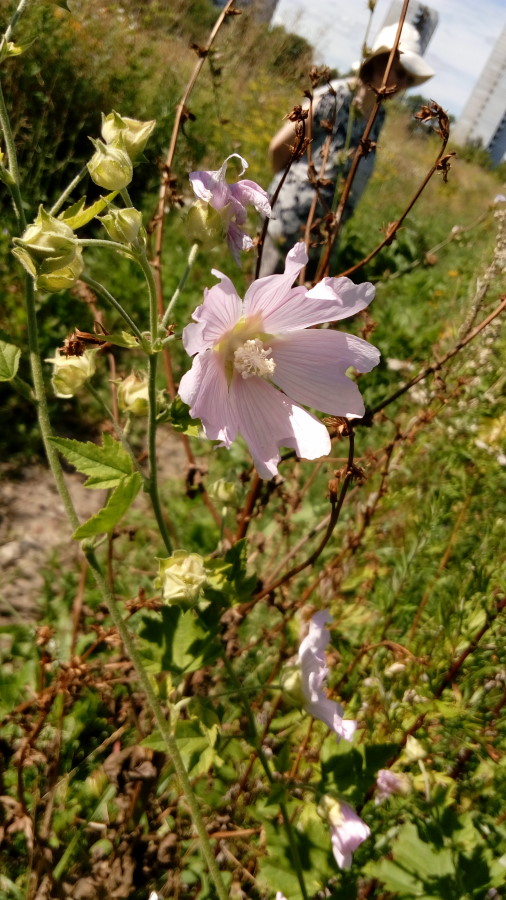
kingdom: Plantae
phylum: Tracheophyta
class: Magnoliopsida
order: Malvales
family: Malvaceae
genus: Malva
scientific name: Malva thuringiaca
